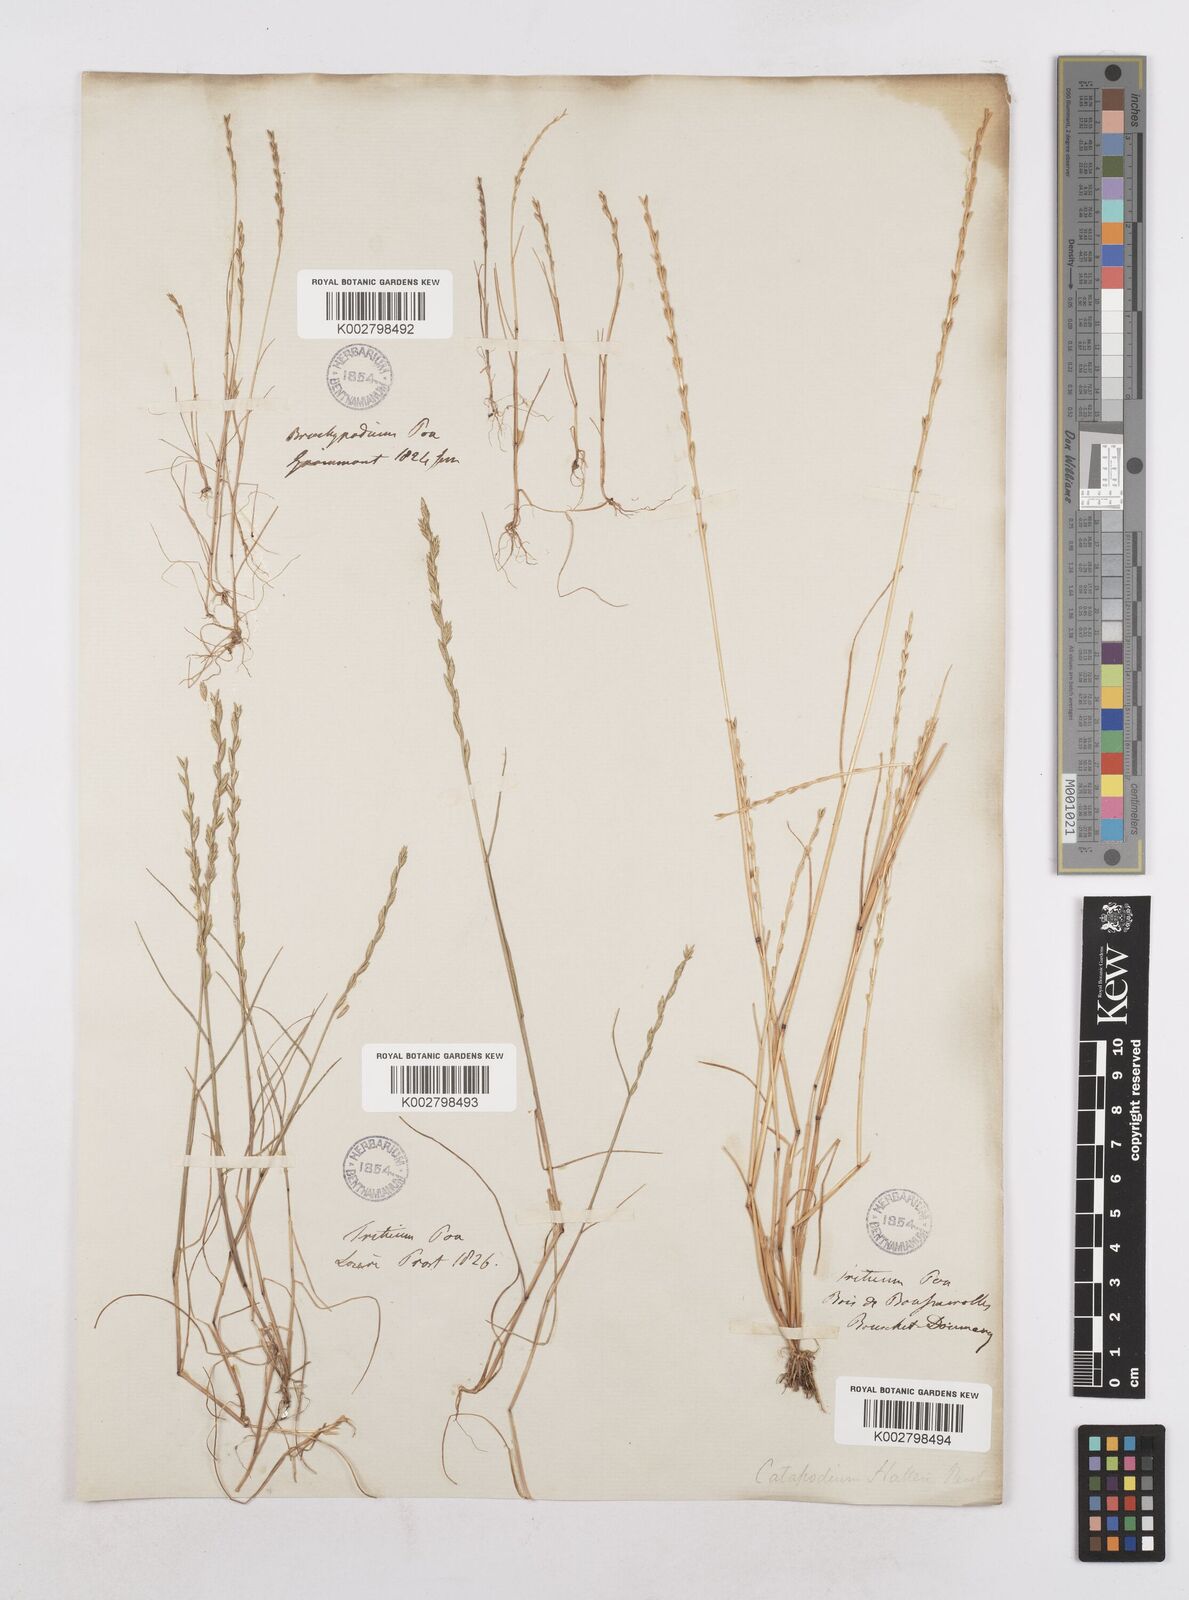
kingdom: Plantae
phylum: Tracheophyta
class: Liliopsida
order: Poales
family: Poaceae
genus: Festuca
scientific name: Festuca lachenalii
